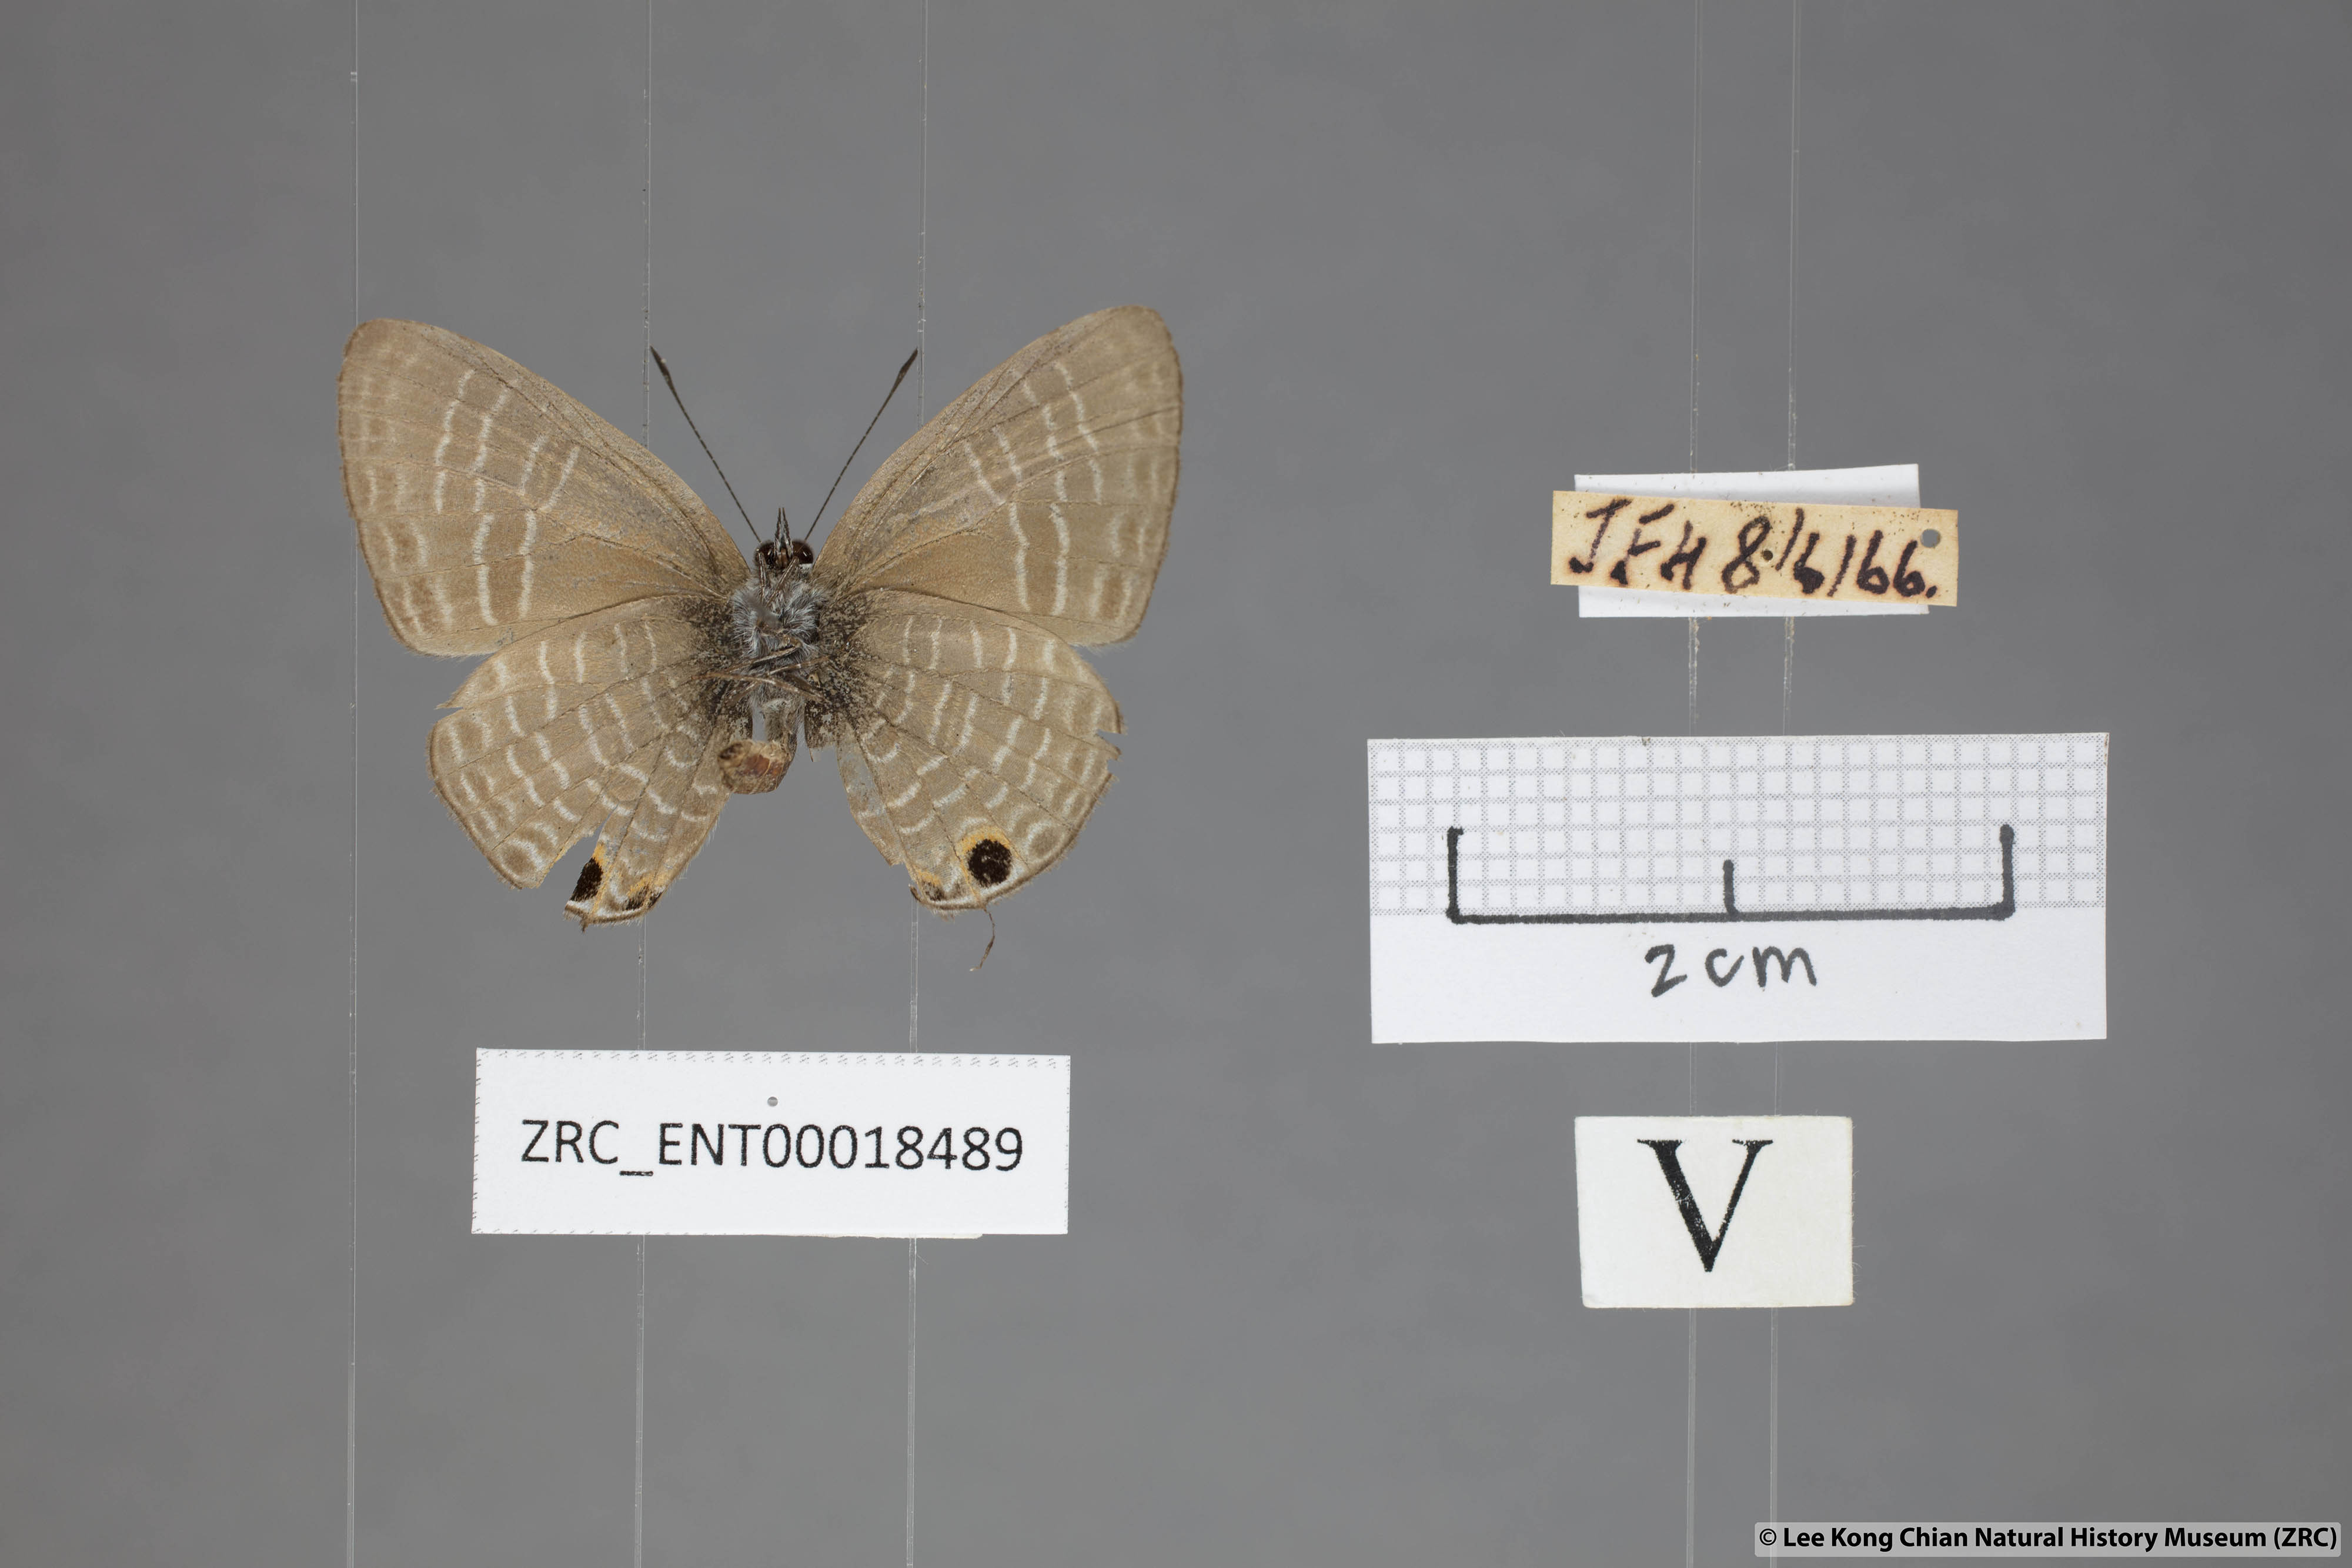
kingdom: Animalia
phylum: Arthropoda
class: Insecta
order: Lepidoptera
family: Lycaenidae
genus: Nacaduba
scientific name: Nacaduba subperusia
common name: Violet fourline blue
